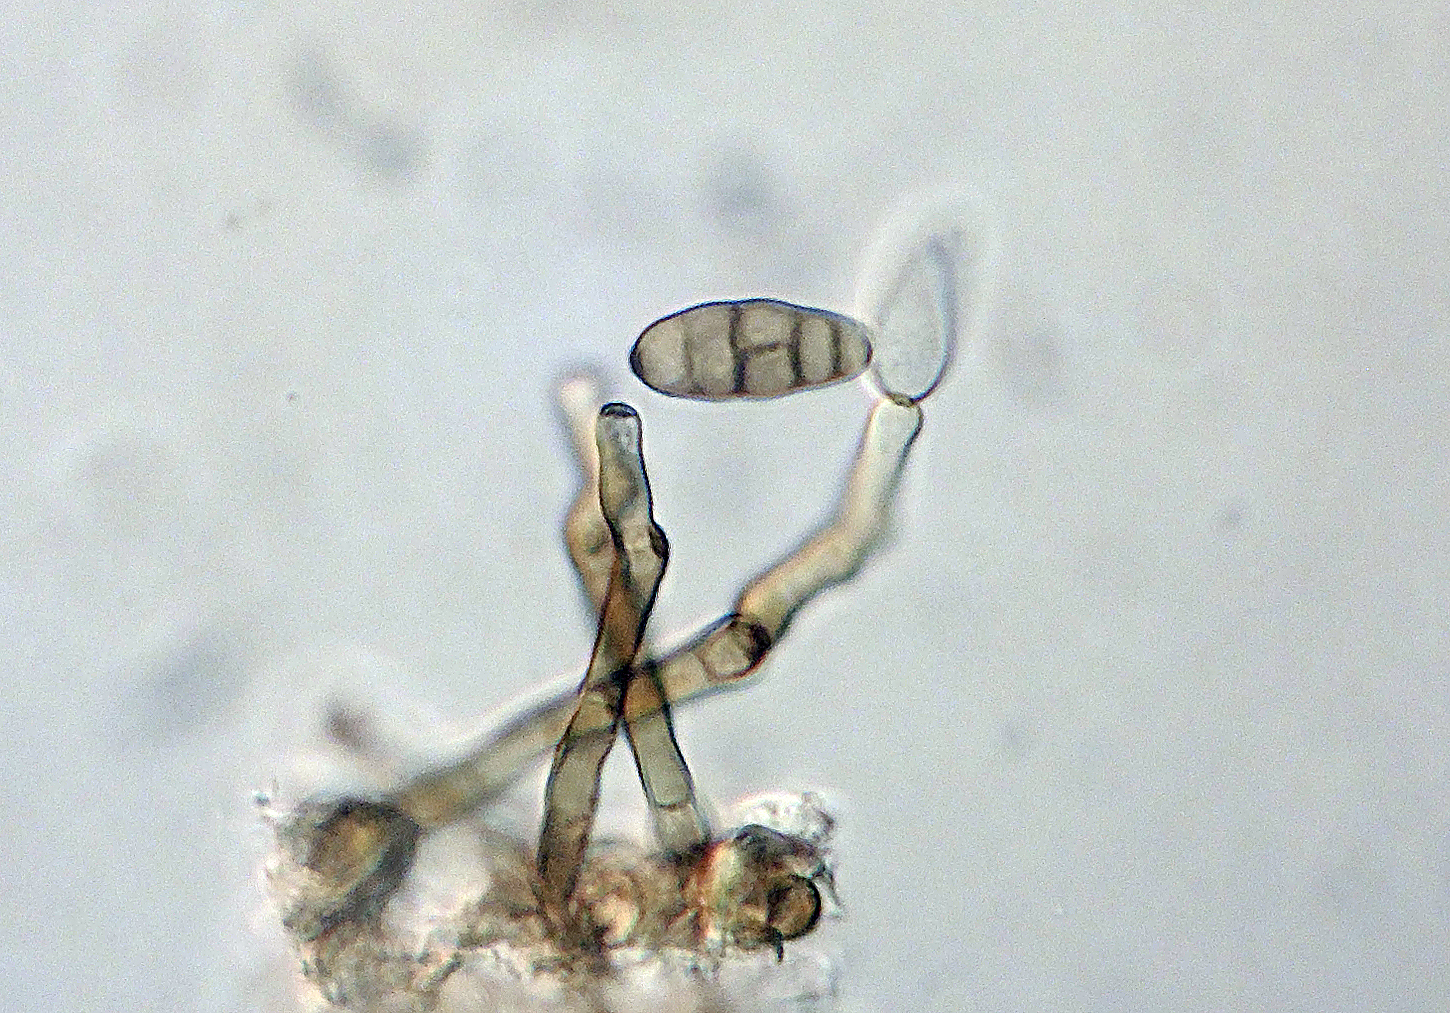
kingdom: Fungi
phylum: Ascomycota
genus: Dactylosporium
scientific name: Dactylosporium macropus
